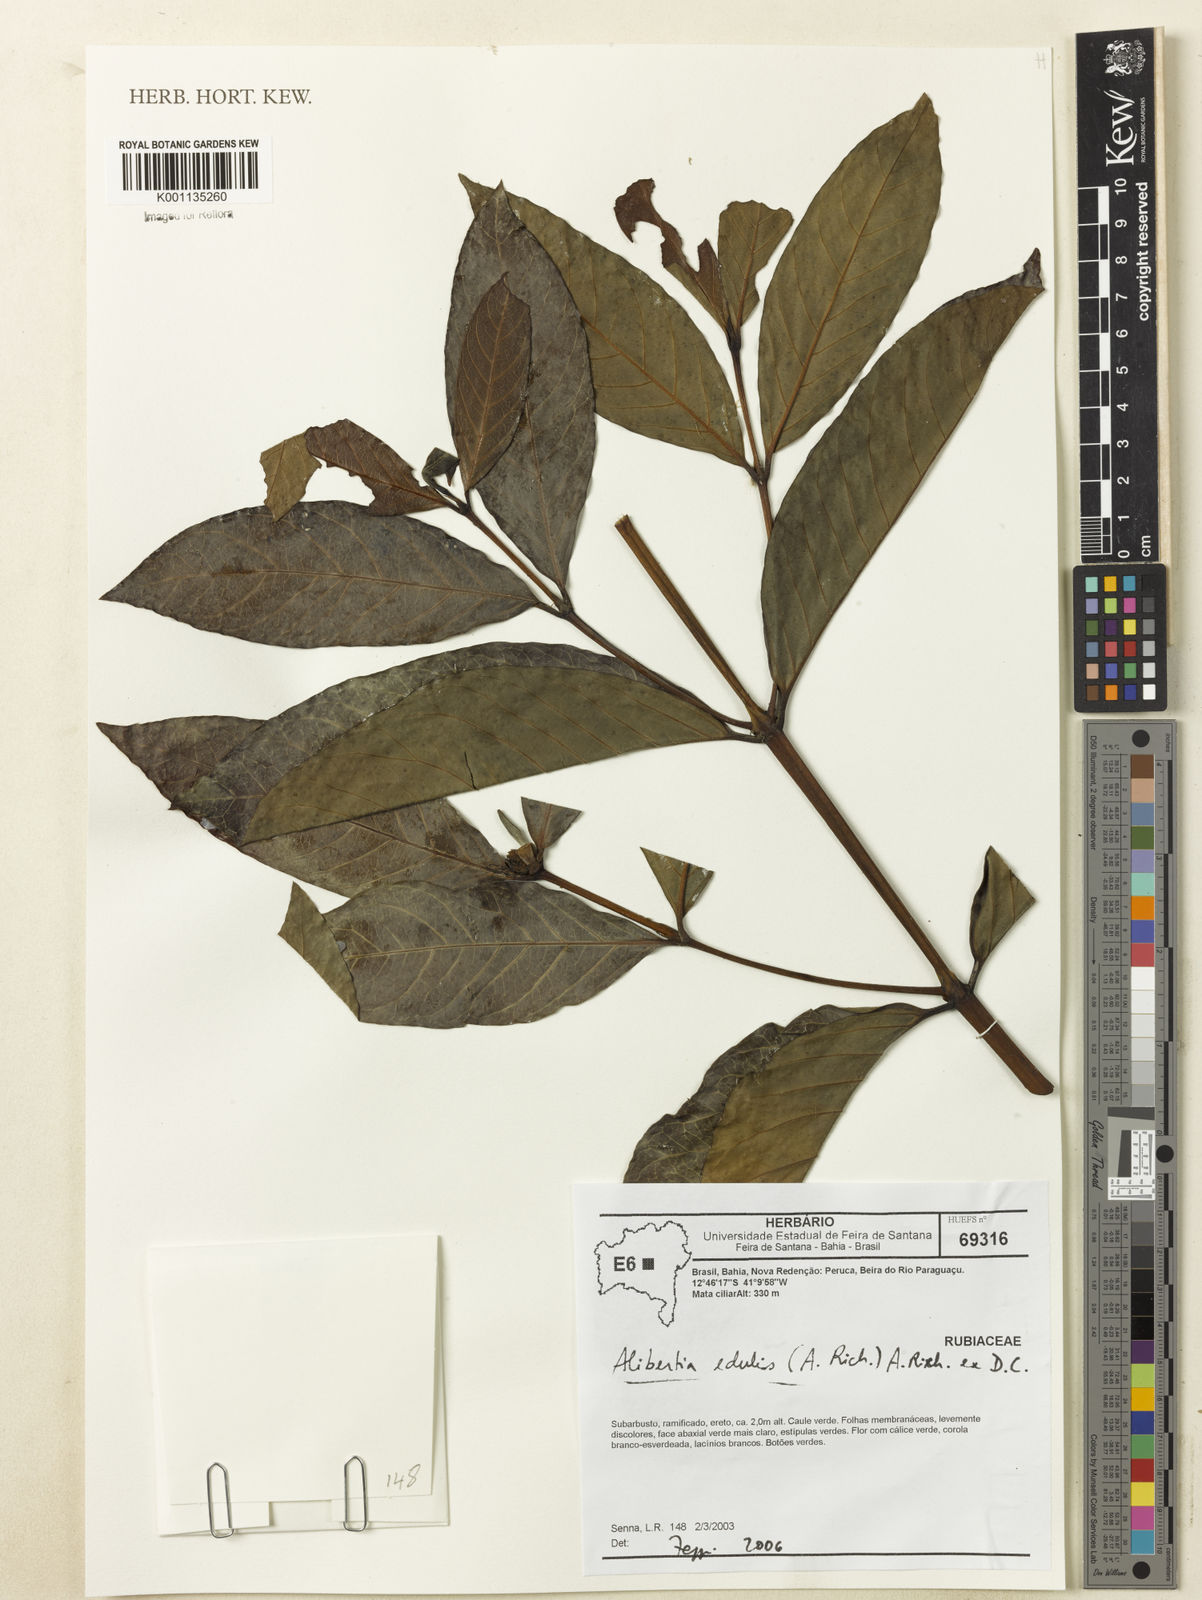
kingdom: Plantae
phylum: Tracheophyta
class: Magnoliopsida
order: Gentianales
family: Rubiaceae
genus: Alibertia
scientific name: Alibertia edulis
